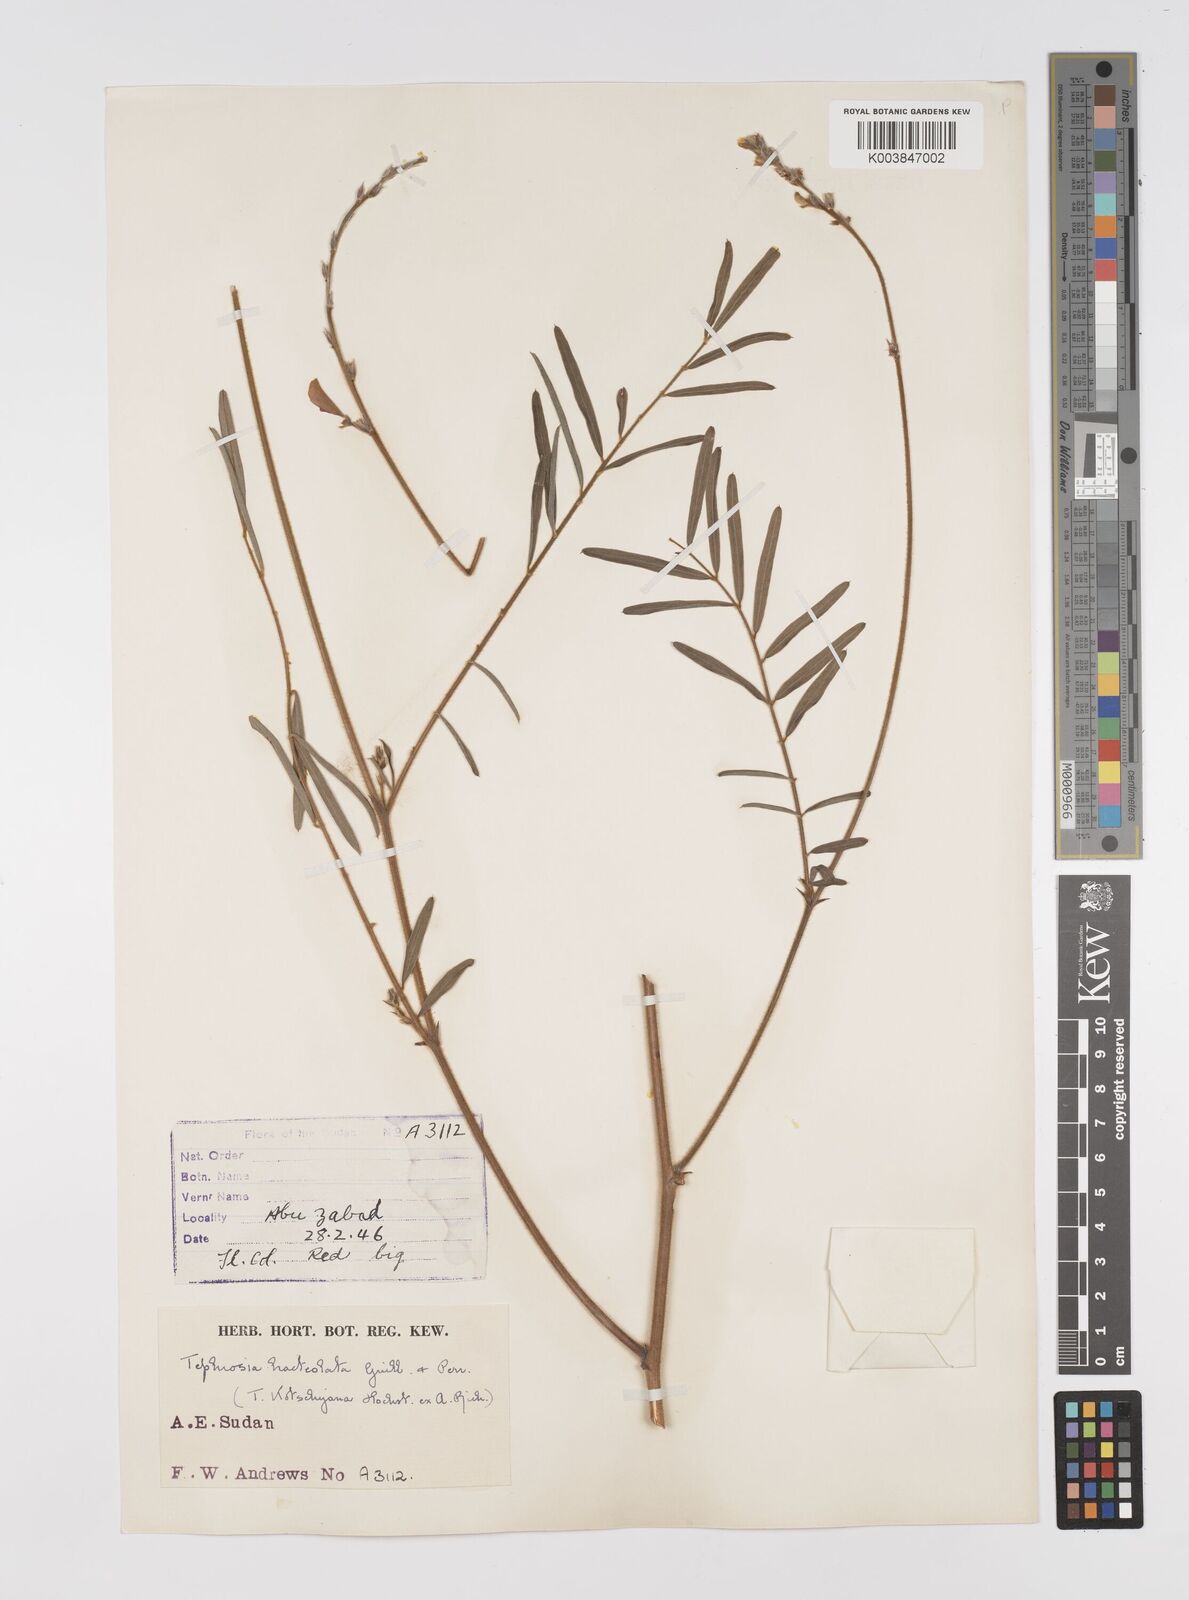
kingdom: Plantae
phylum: Tracheophyta
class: Magnoliopsida
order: Fabales
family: Fabaceae
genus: Tephrosia
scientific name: Tephrosia bracteolata
